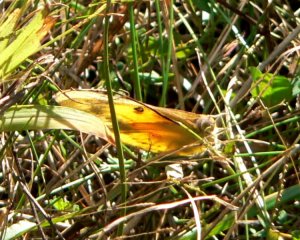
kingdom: Animalia
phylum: Arthropoda
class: Insecta
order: Lepidoptera
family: Pieridae
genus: Colias
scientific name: Colias eurytheme
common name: Orange Sulphur
